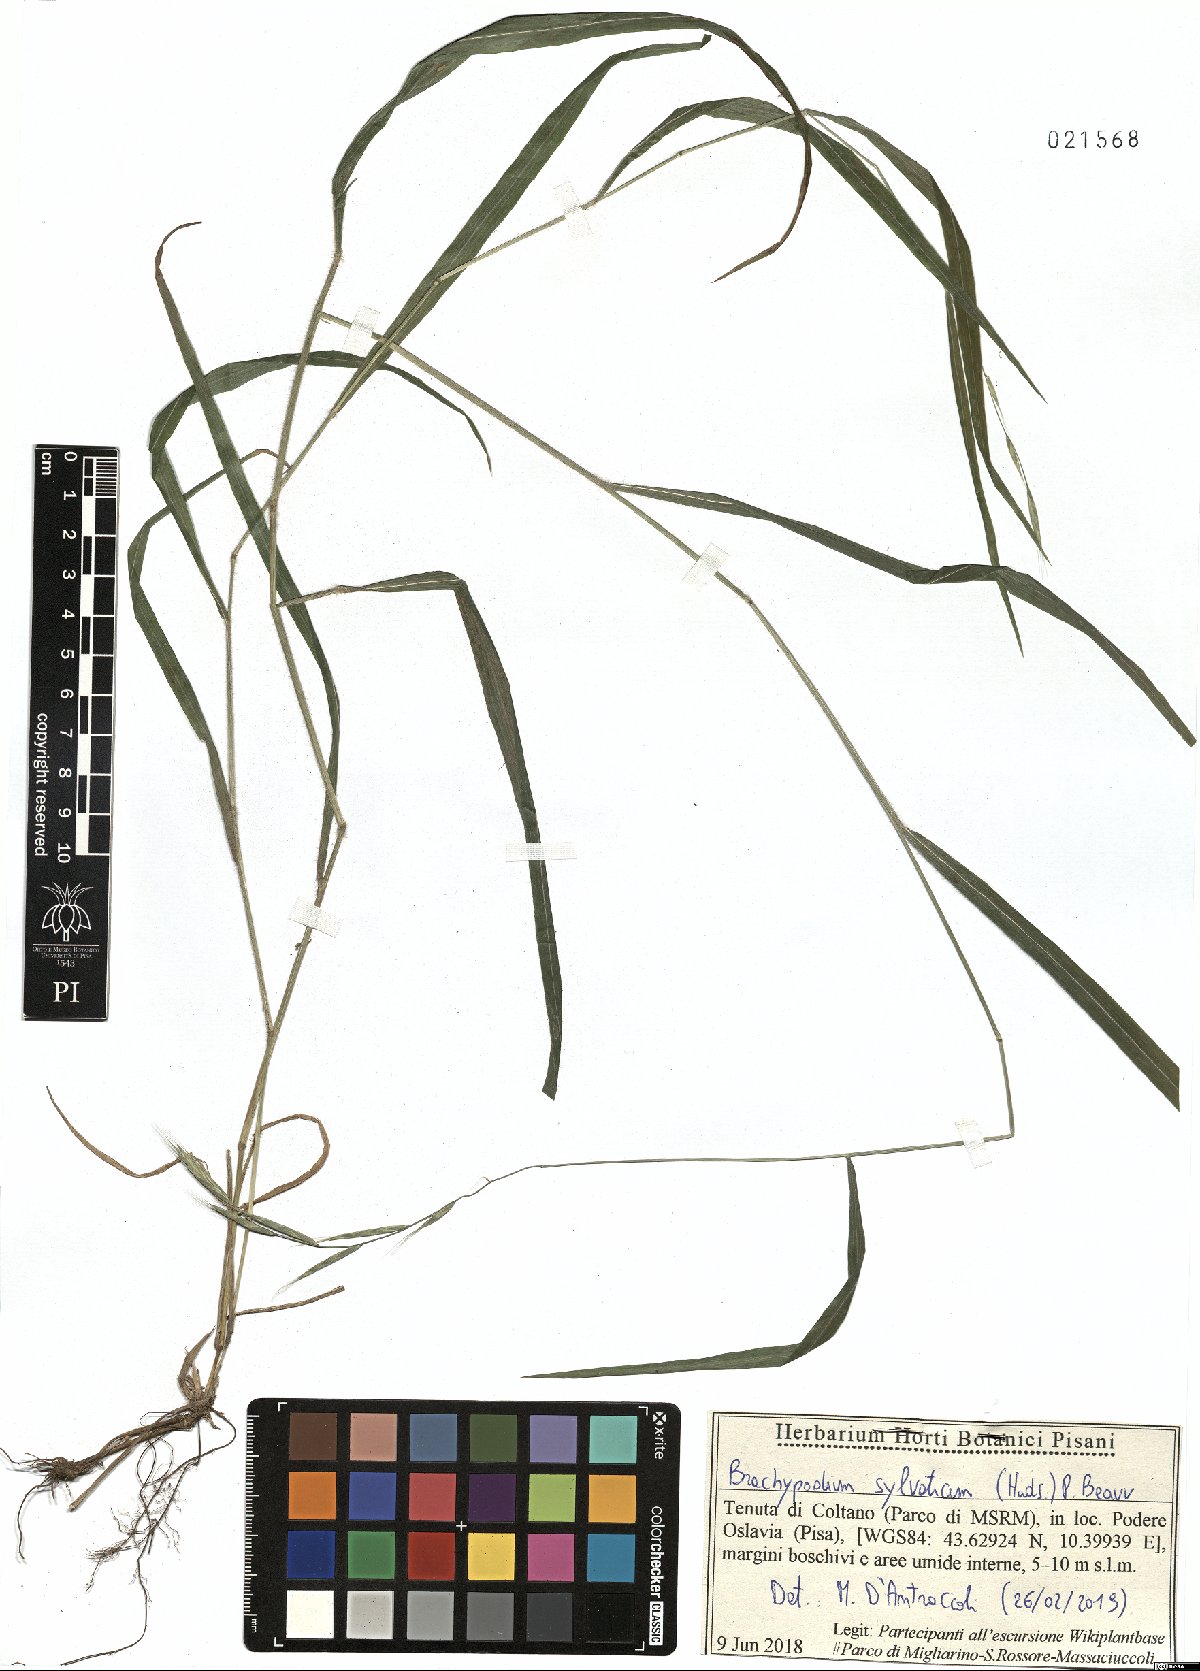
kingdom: Plantae
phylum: Tracheophyta
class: Liliopsida
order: Poales
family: Poaceae
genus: Brachypodium
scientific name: Brachypodium sylvaticum
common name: False-brome
